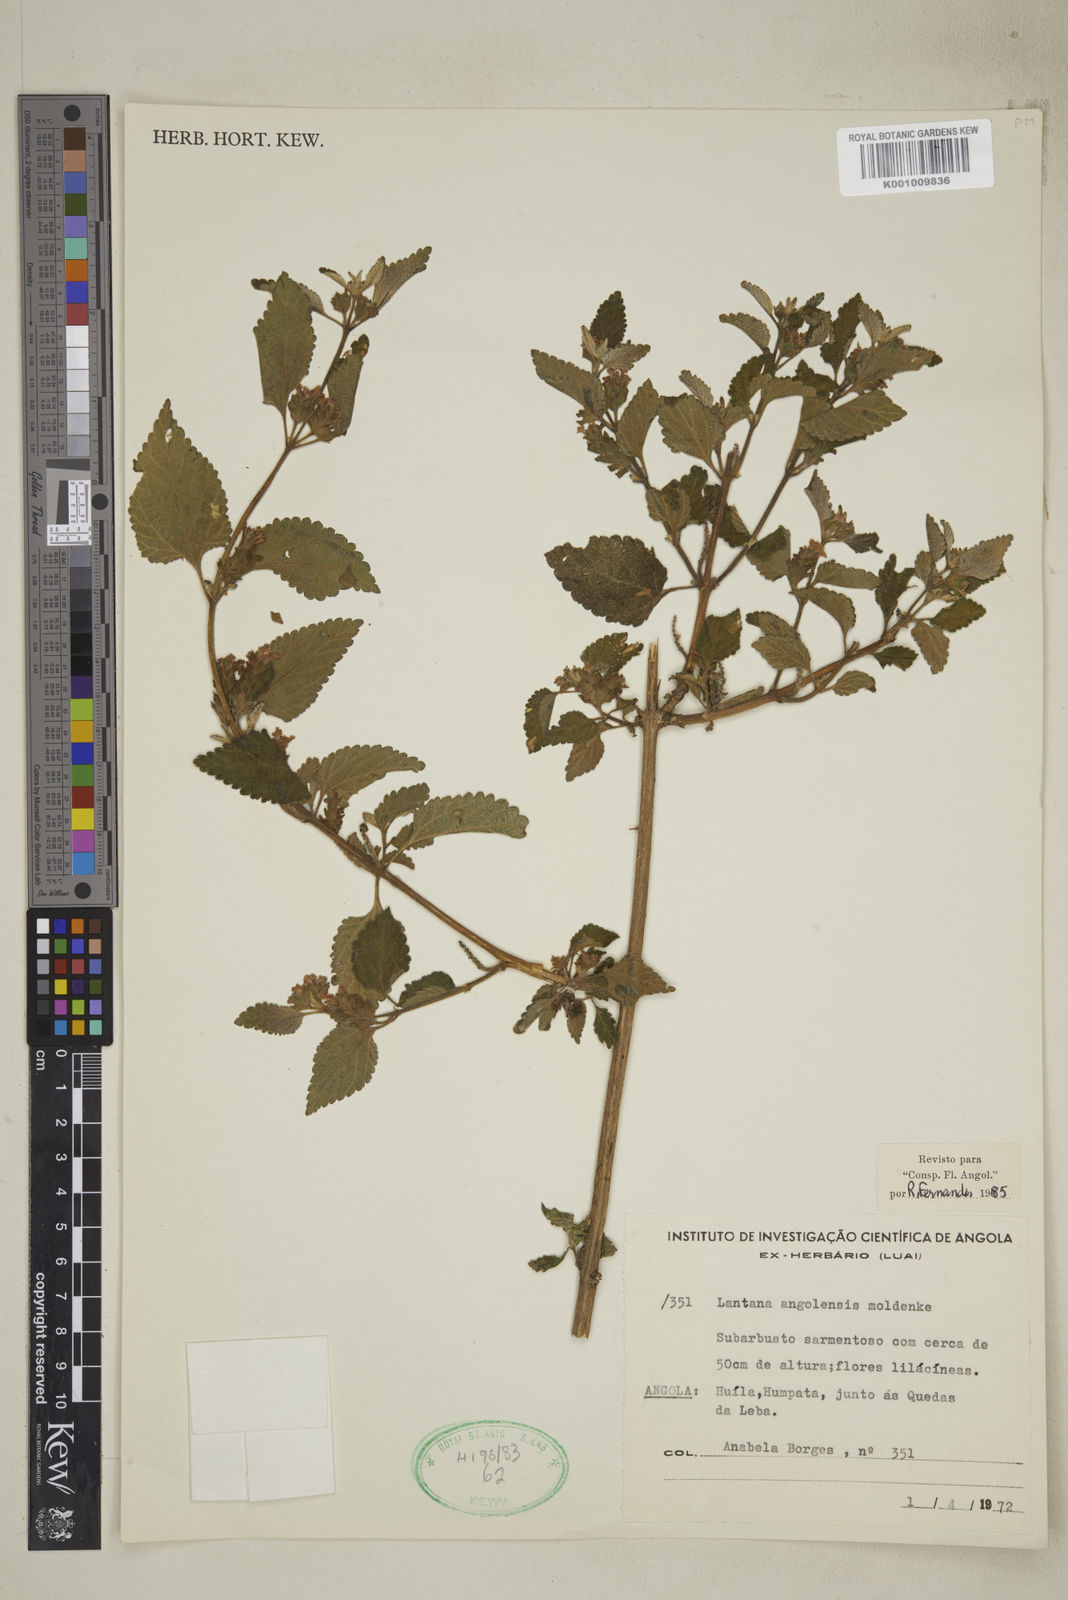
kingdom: Plantae
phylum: Tracheophyta
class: Magnoliopsida
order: Lamiales
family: Verbenaceae
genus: Lantana
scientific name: Lantana angolensis
